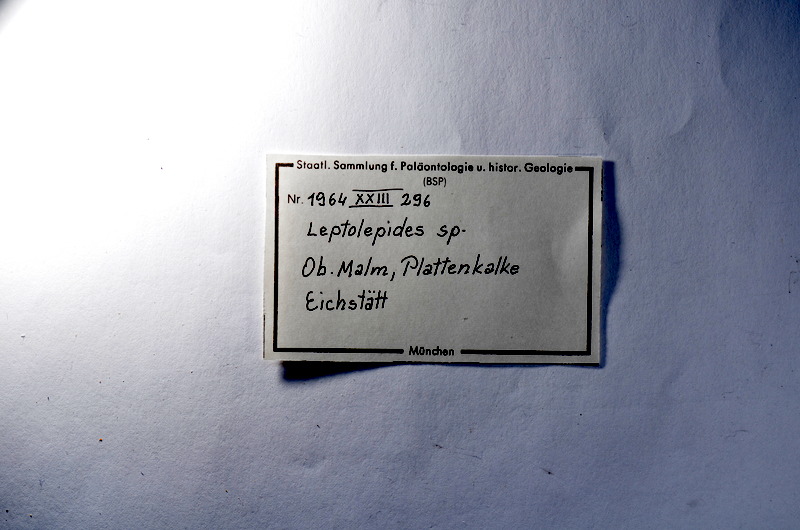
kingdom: Animalia
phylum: Chordata
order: Salmoniformes
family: Orthogonikleithridae
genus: Leptolepides
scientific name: Leptolepides
